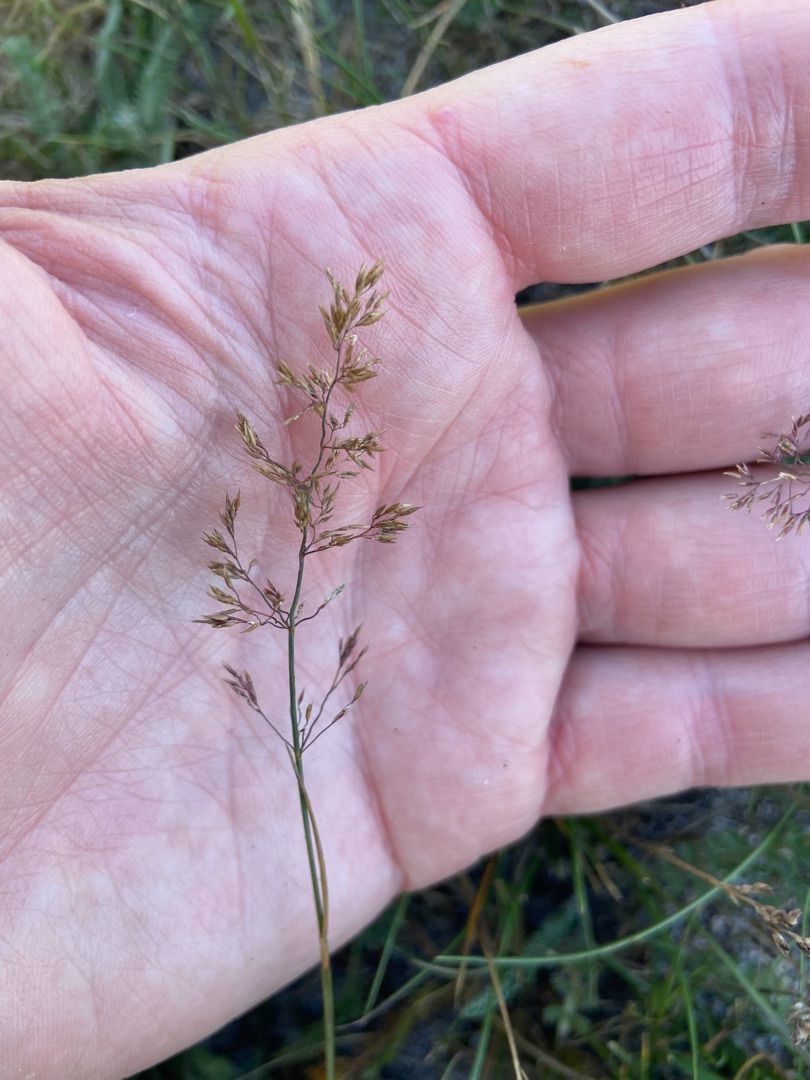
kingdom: Plantae
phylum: Tracheophyta
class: Liliopsida
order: Poales
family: Poaceae
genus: Agrostis
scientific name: Agrostis capillaris
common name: Almindelig hvene
